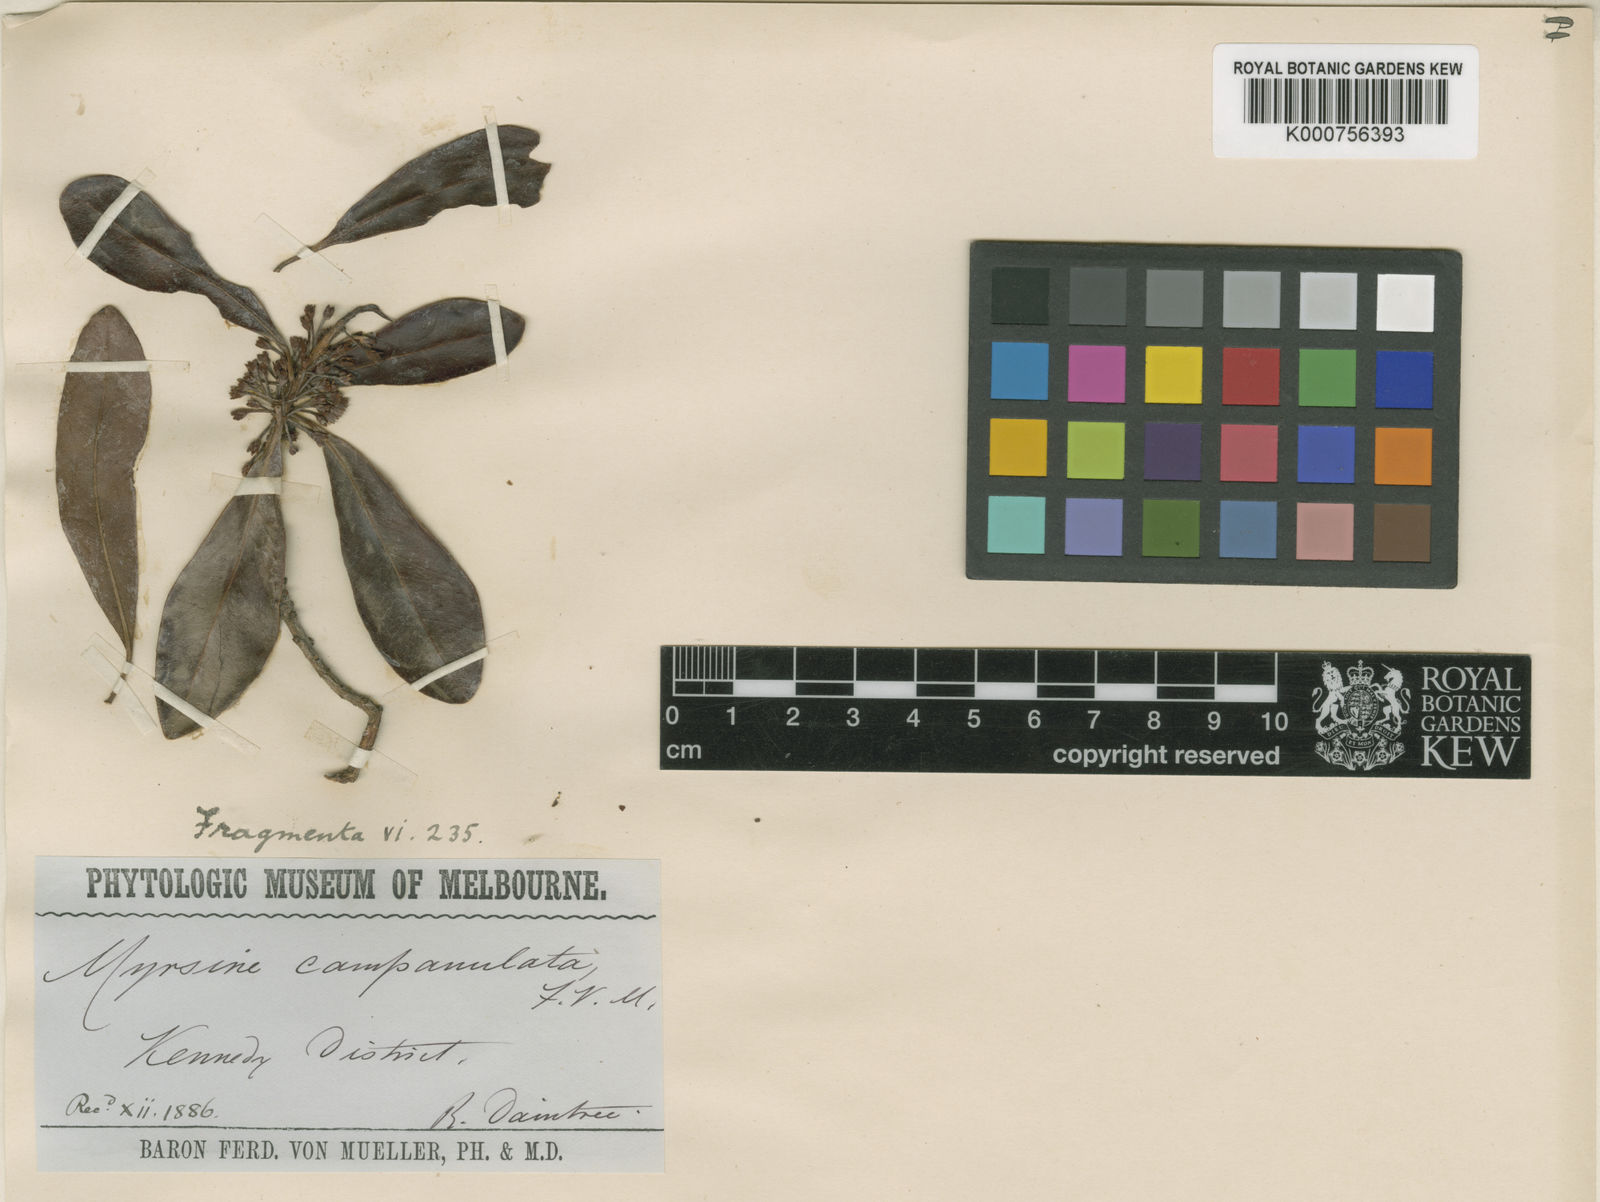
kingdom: Plantae
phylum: Tracheophyta
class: Magnoliopsida
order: Ericales
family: Primulaceae
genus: Myrsine
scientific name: Myrsine variabilis
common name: Brush muttonwood
